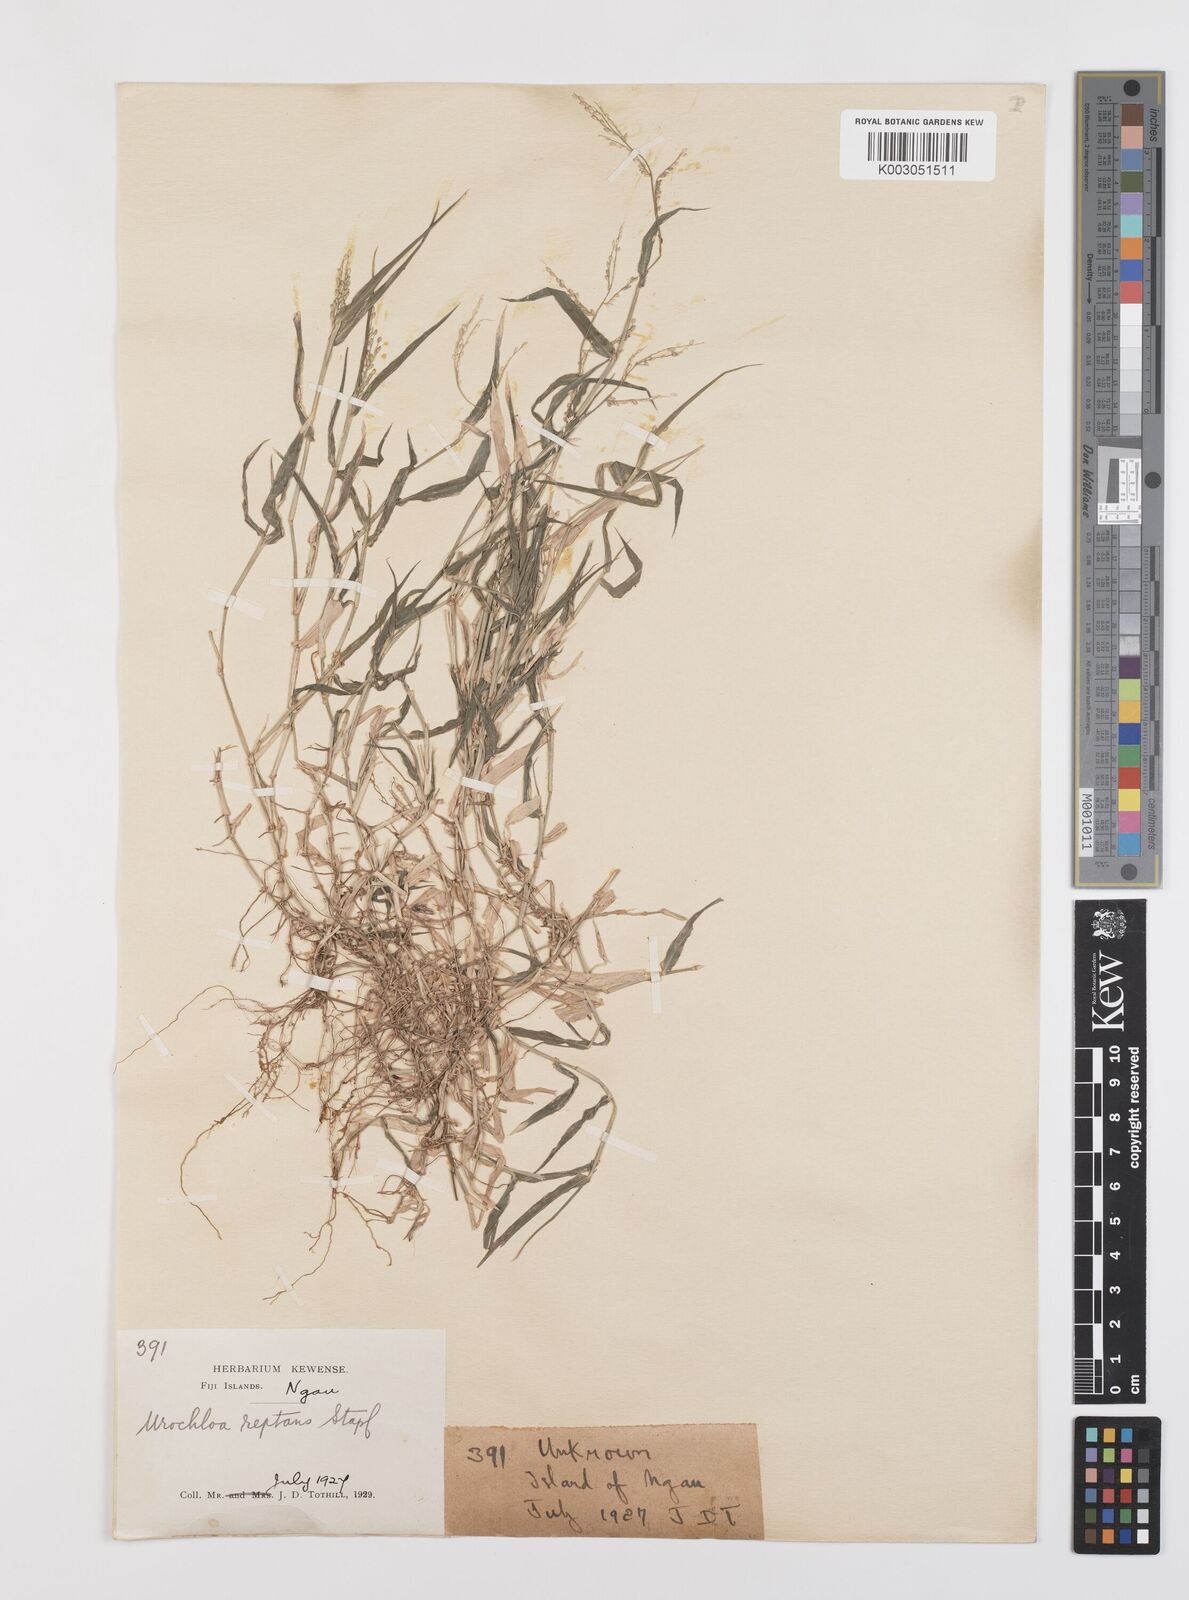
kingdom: Plantae
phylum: Tracheophyta
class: Liliopsida
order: Poales
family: Poaceae
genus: Urochloa
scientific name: Urochloa reptans
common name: Sprawling signalgrass
